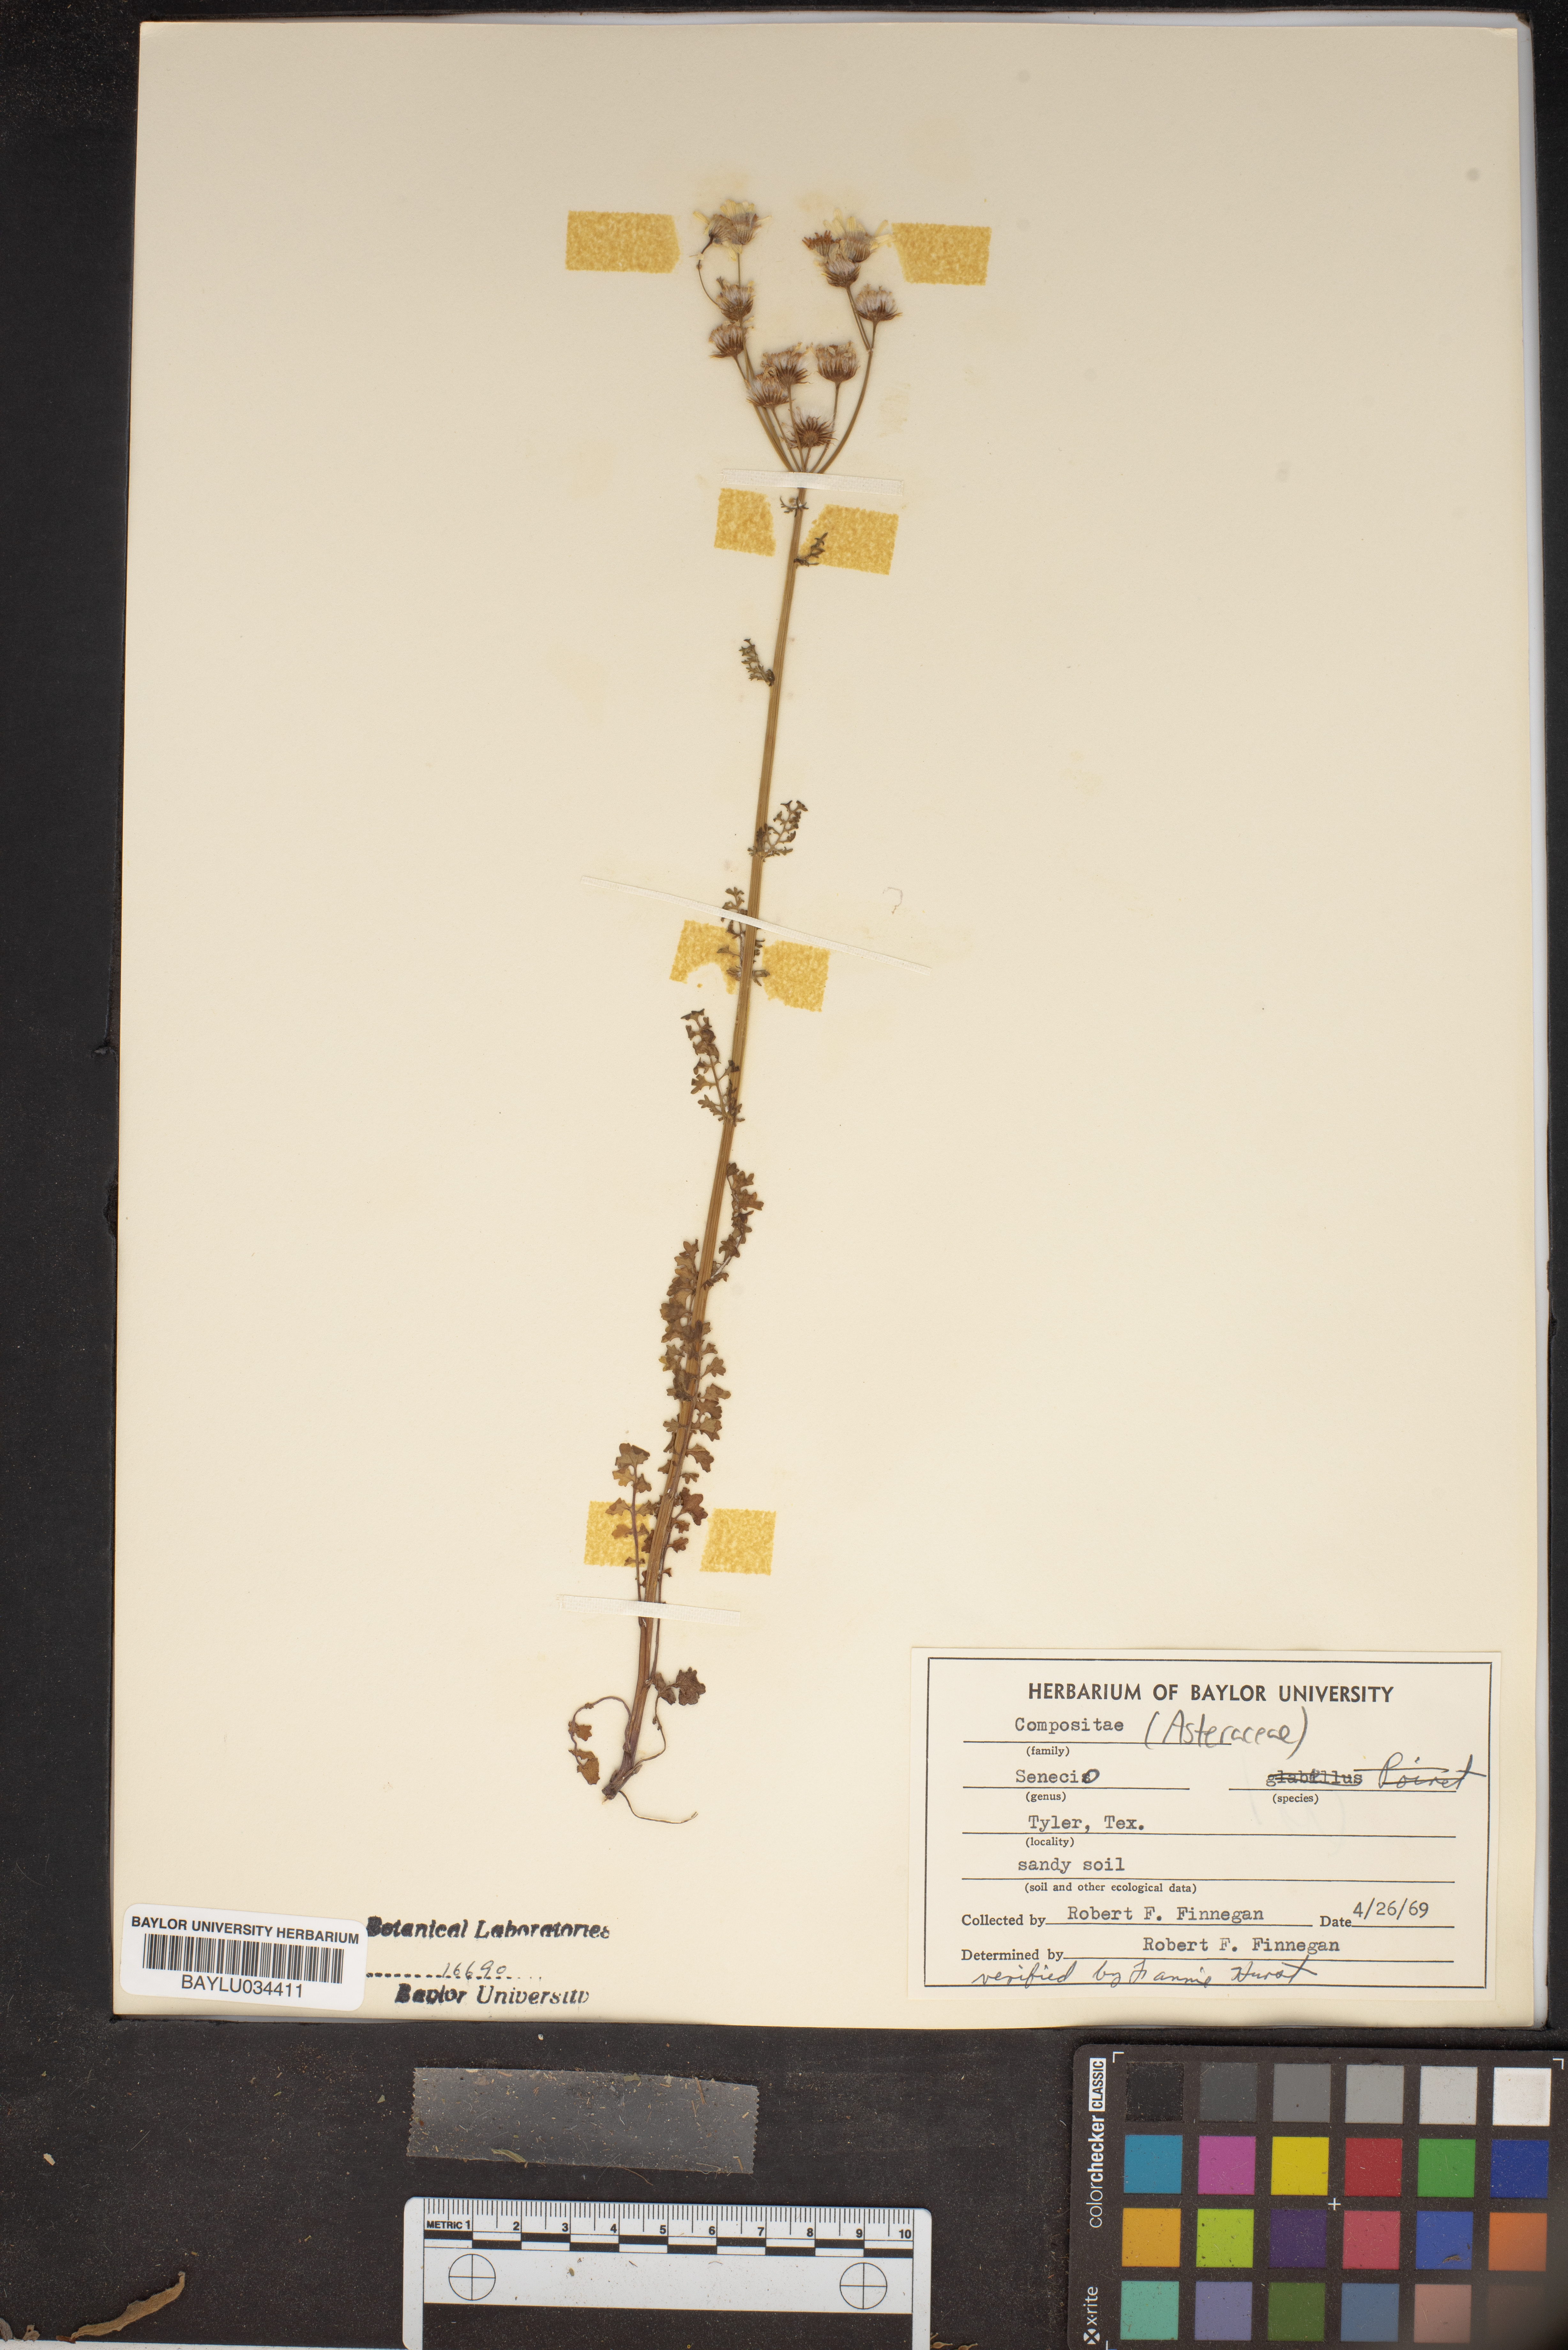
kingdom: Plantae
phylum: Tracheophyta
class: Magnoliopsida
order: Asterales
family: Asteraceae
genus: Senecio
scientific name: Senecio
